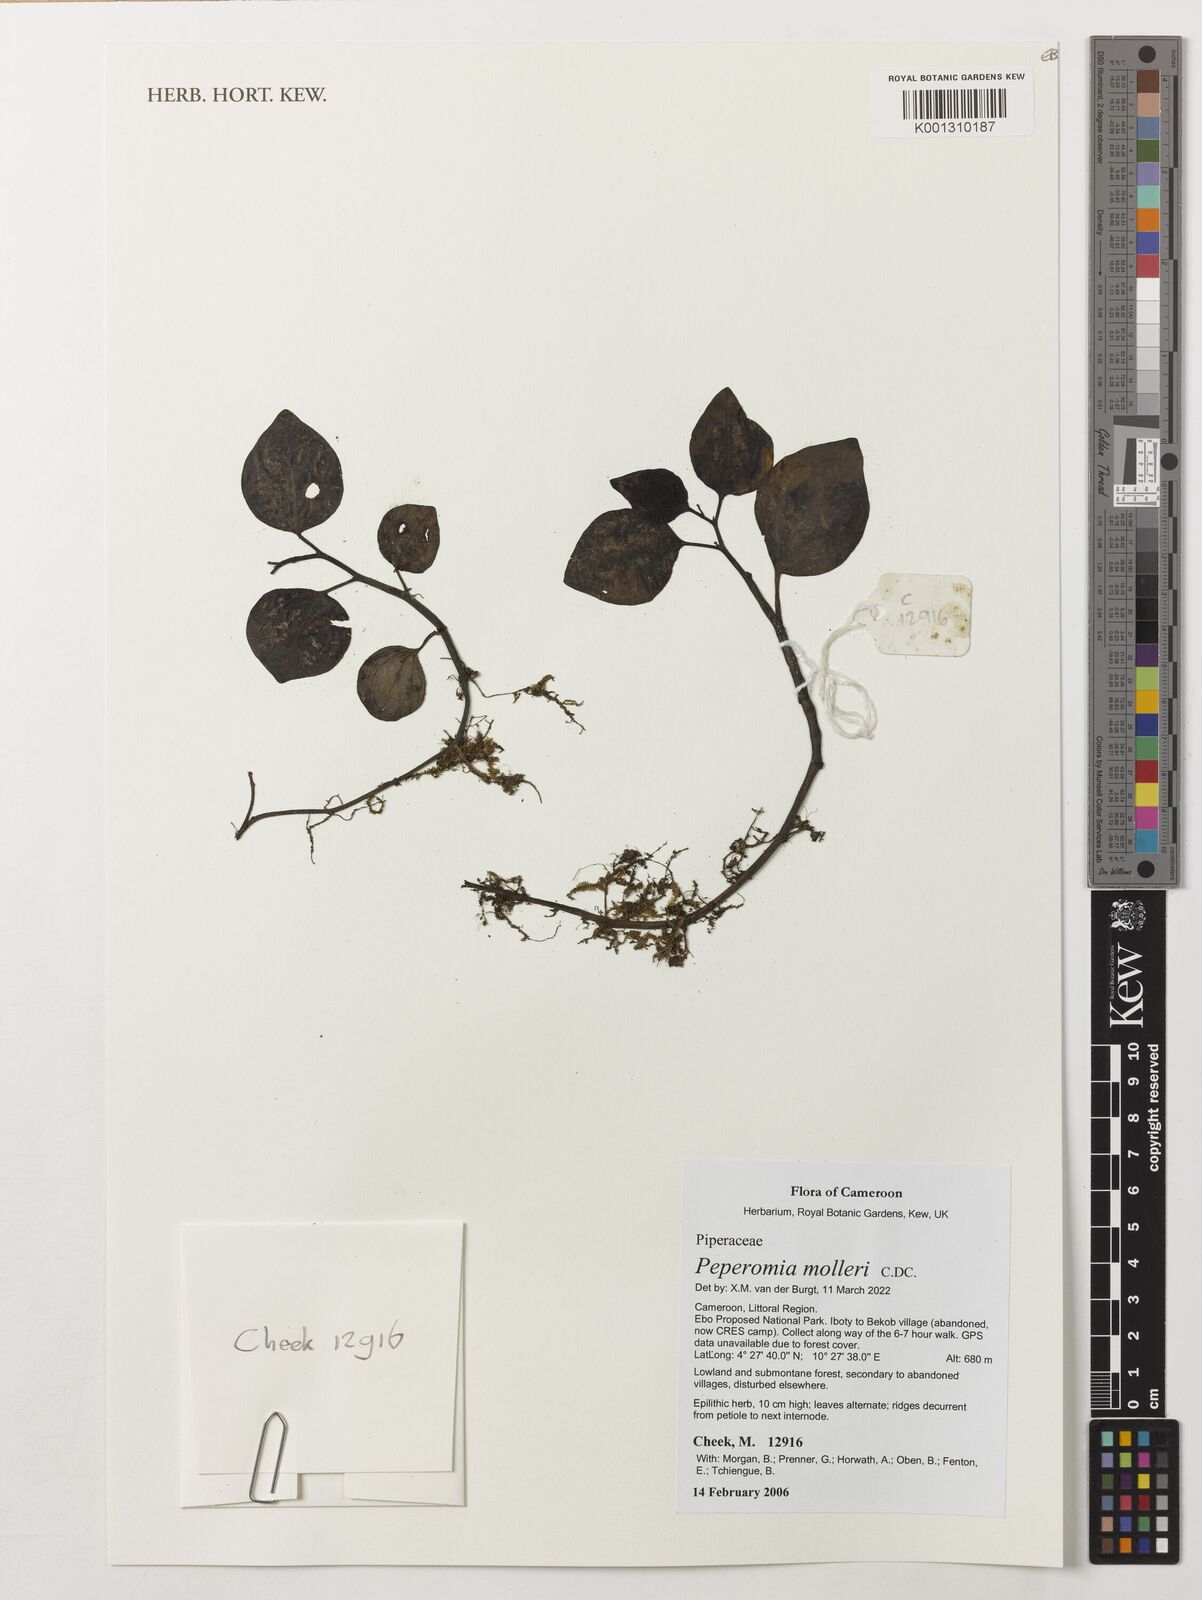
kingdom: Plantae
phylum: Tracheophyta
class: Magnoliopsida
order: Piperales
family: Piperaceae
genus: Peperomia
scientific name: Peperomia molleri
